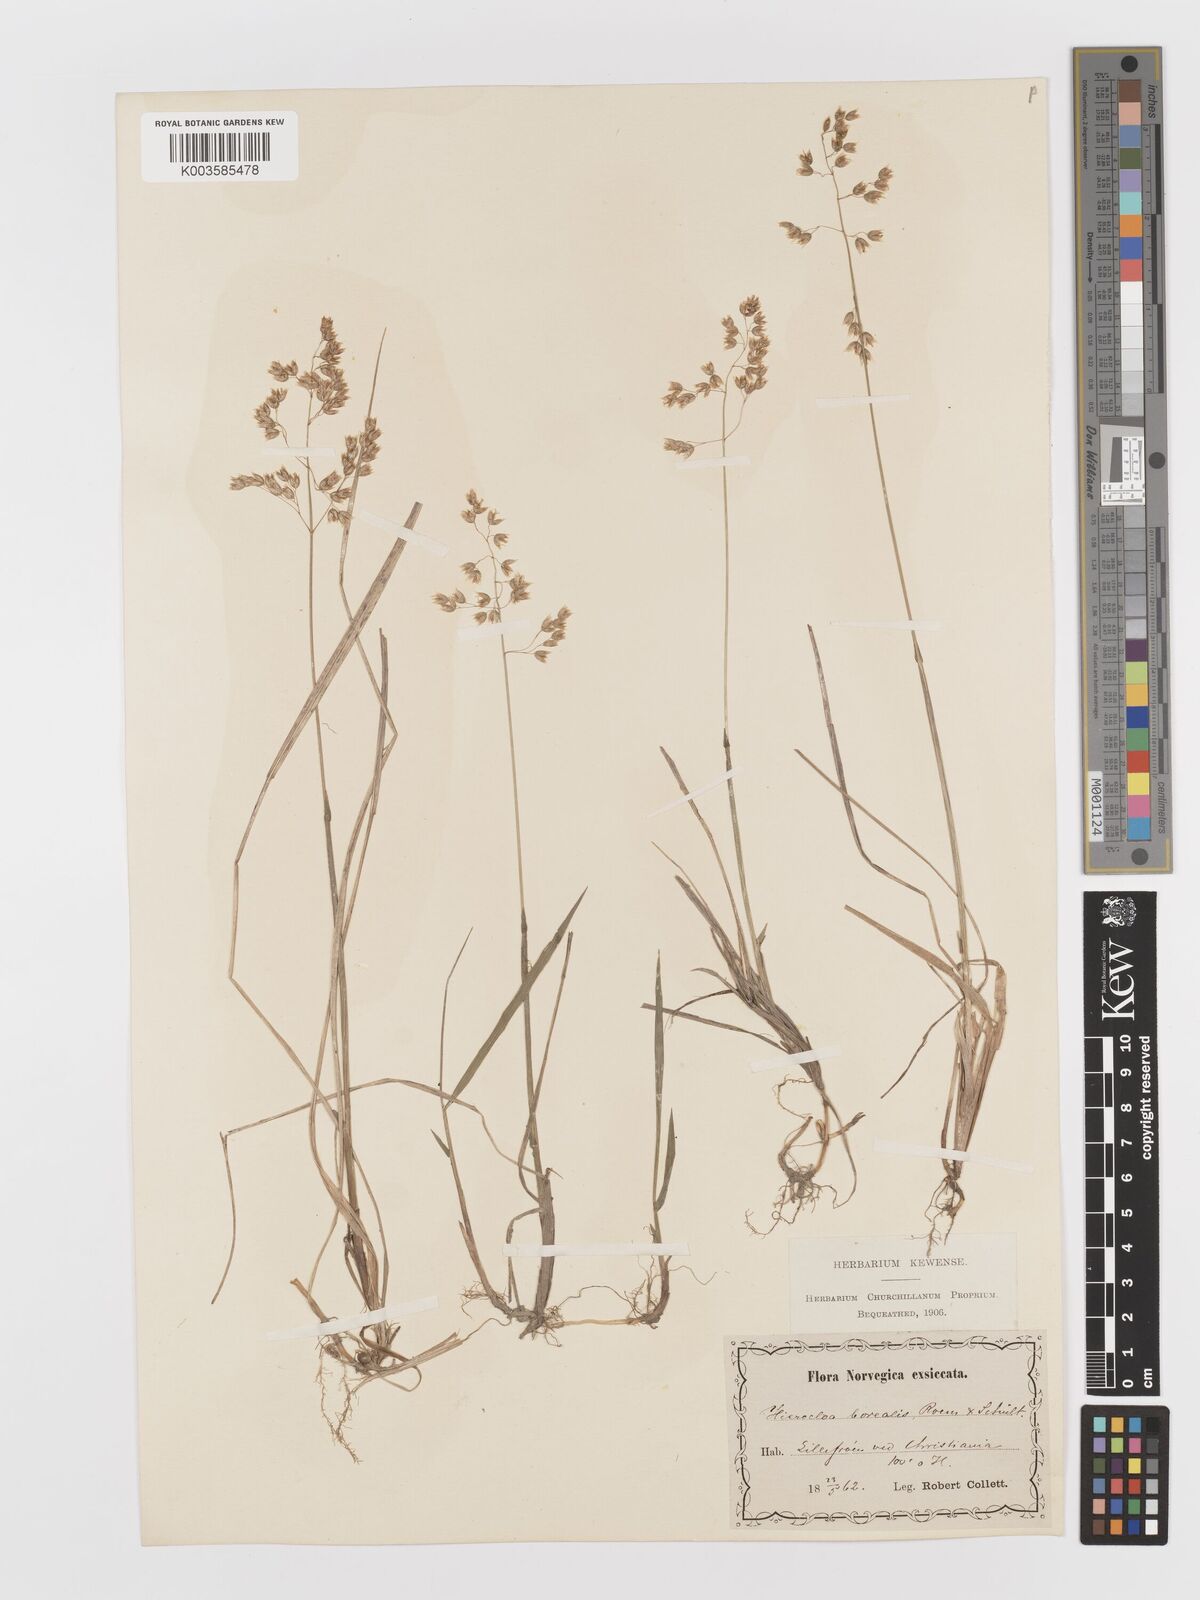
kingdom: Plantae
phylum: Tracheophyta
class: Liliopsida
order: Poales
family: Poaceae
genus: Anthoxanthum
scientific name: Anthoxanthum nitens
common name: Holy grass
